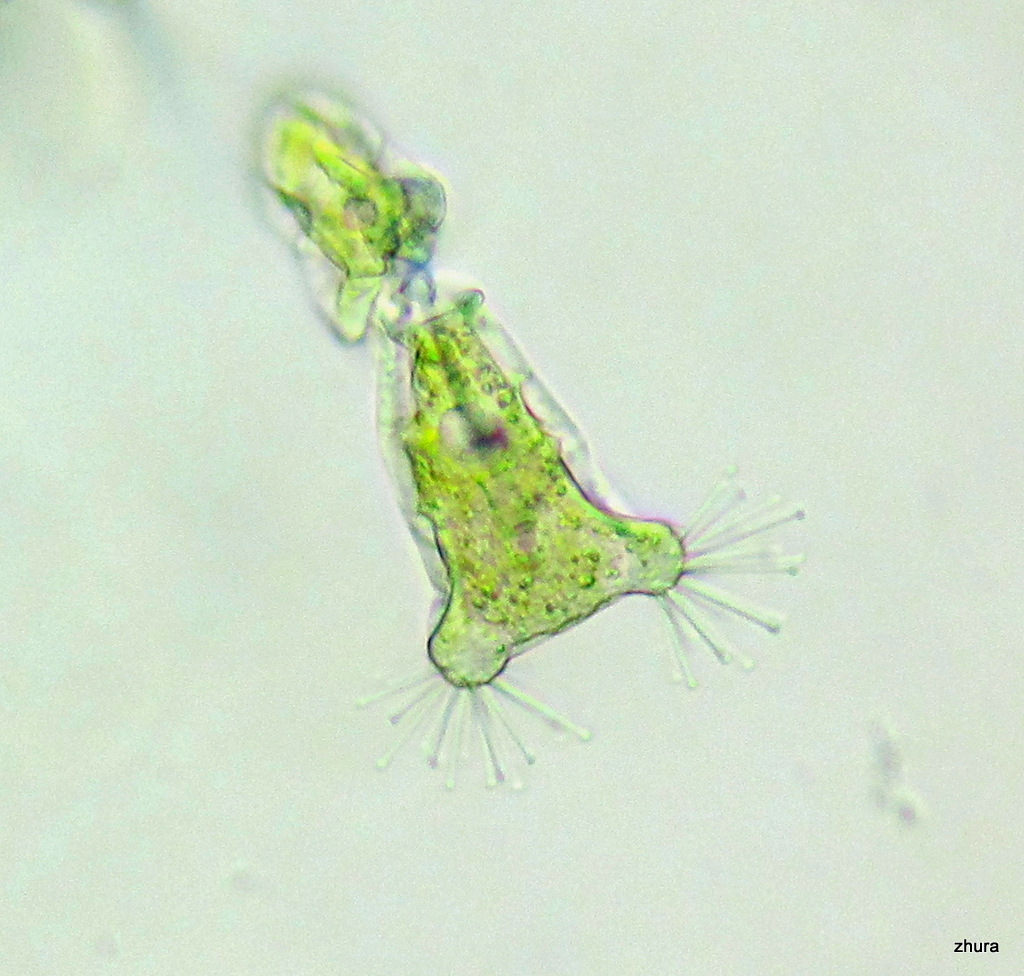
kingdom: Chromista
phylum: Ciliophora
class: Kinetofragminophora
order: Suctorida
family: Acinetidae
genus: Acineta
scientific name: Acineta tuberosa
